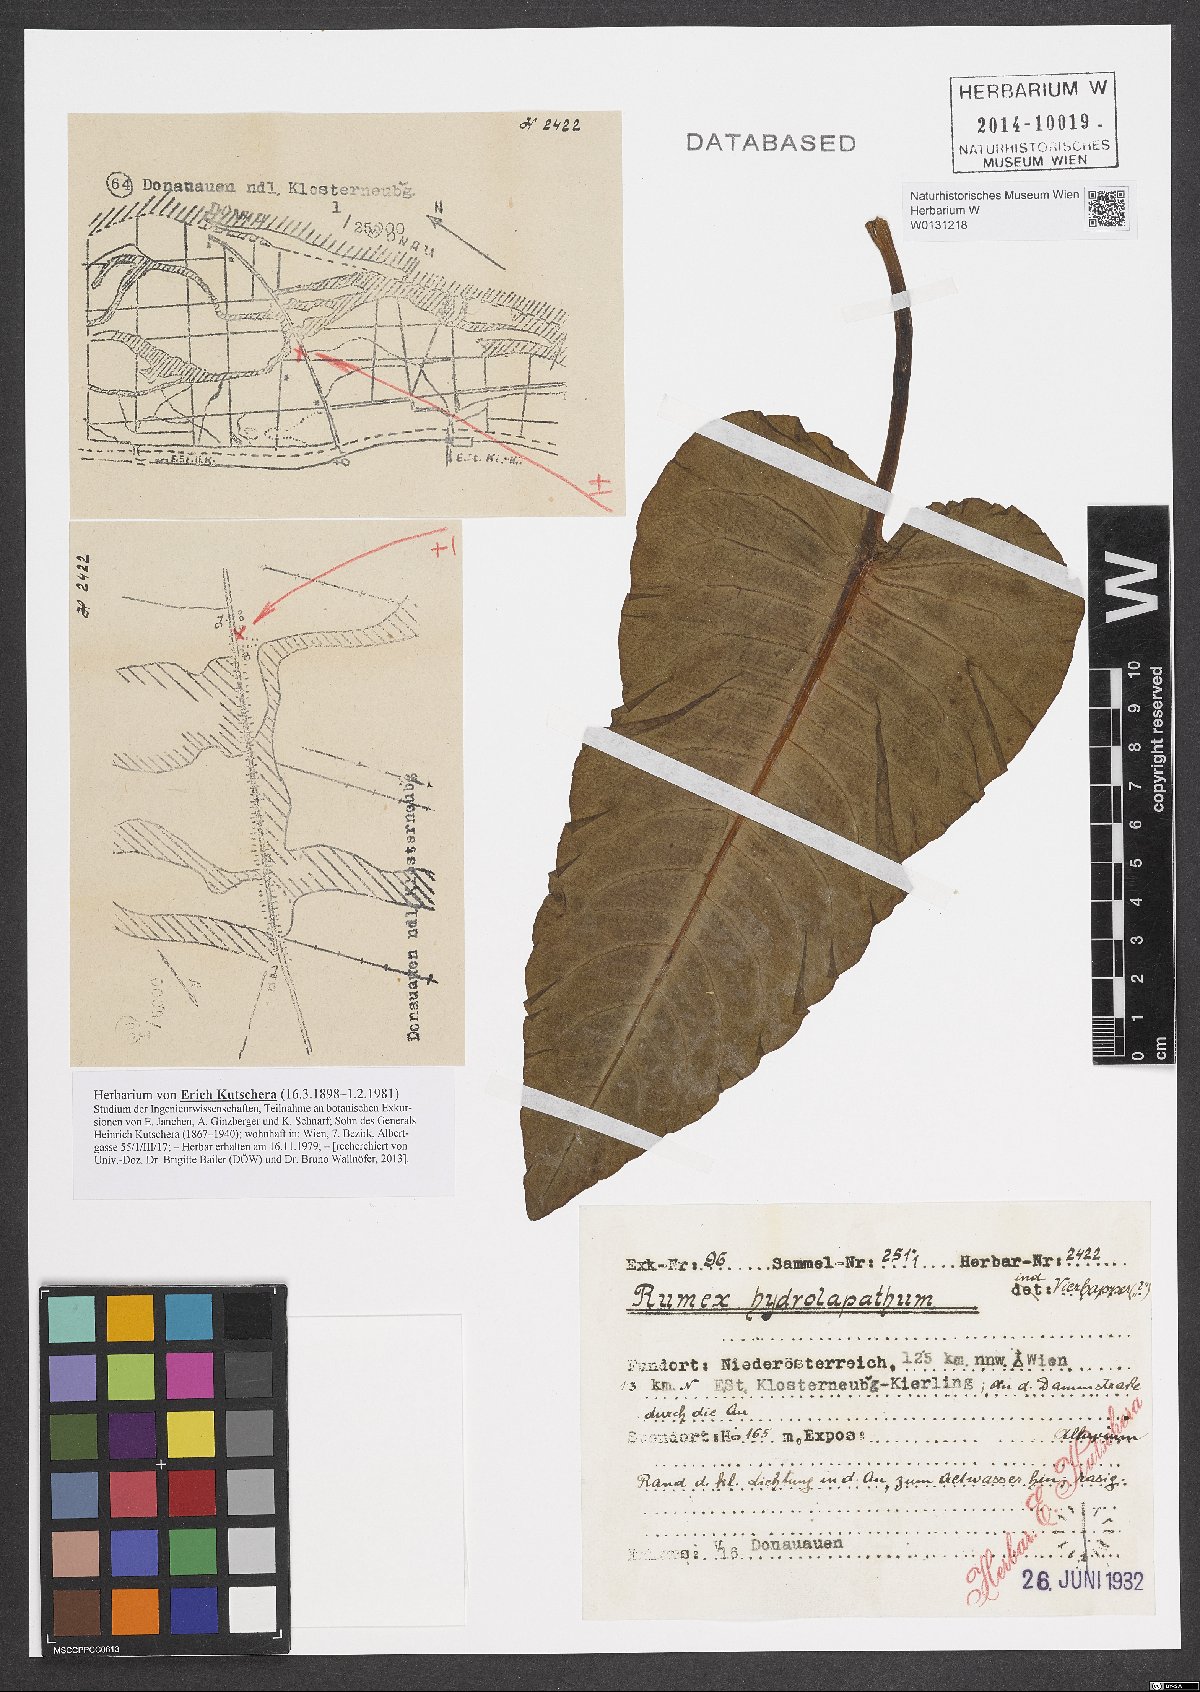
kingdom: Plantae
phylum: Tracheophyta
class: Magnoliopsida
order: Caryophyllales
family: Polygonaceae
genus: Rumex
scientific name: Rumex hydrolapathum
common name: Water dock
